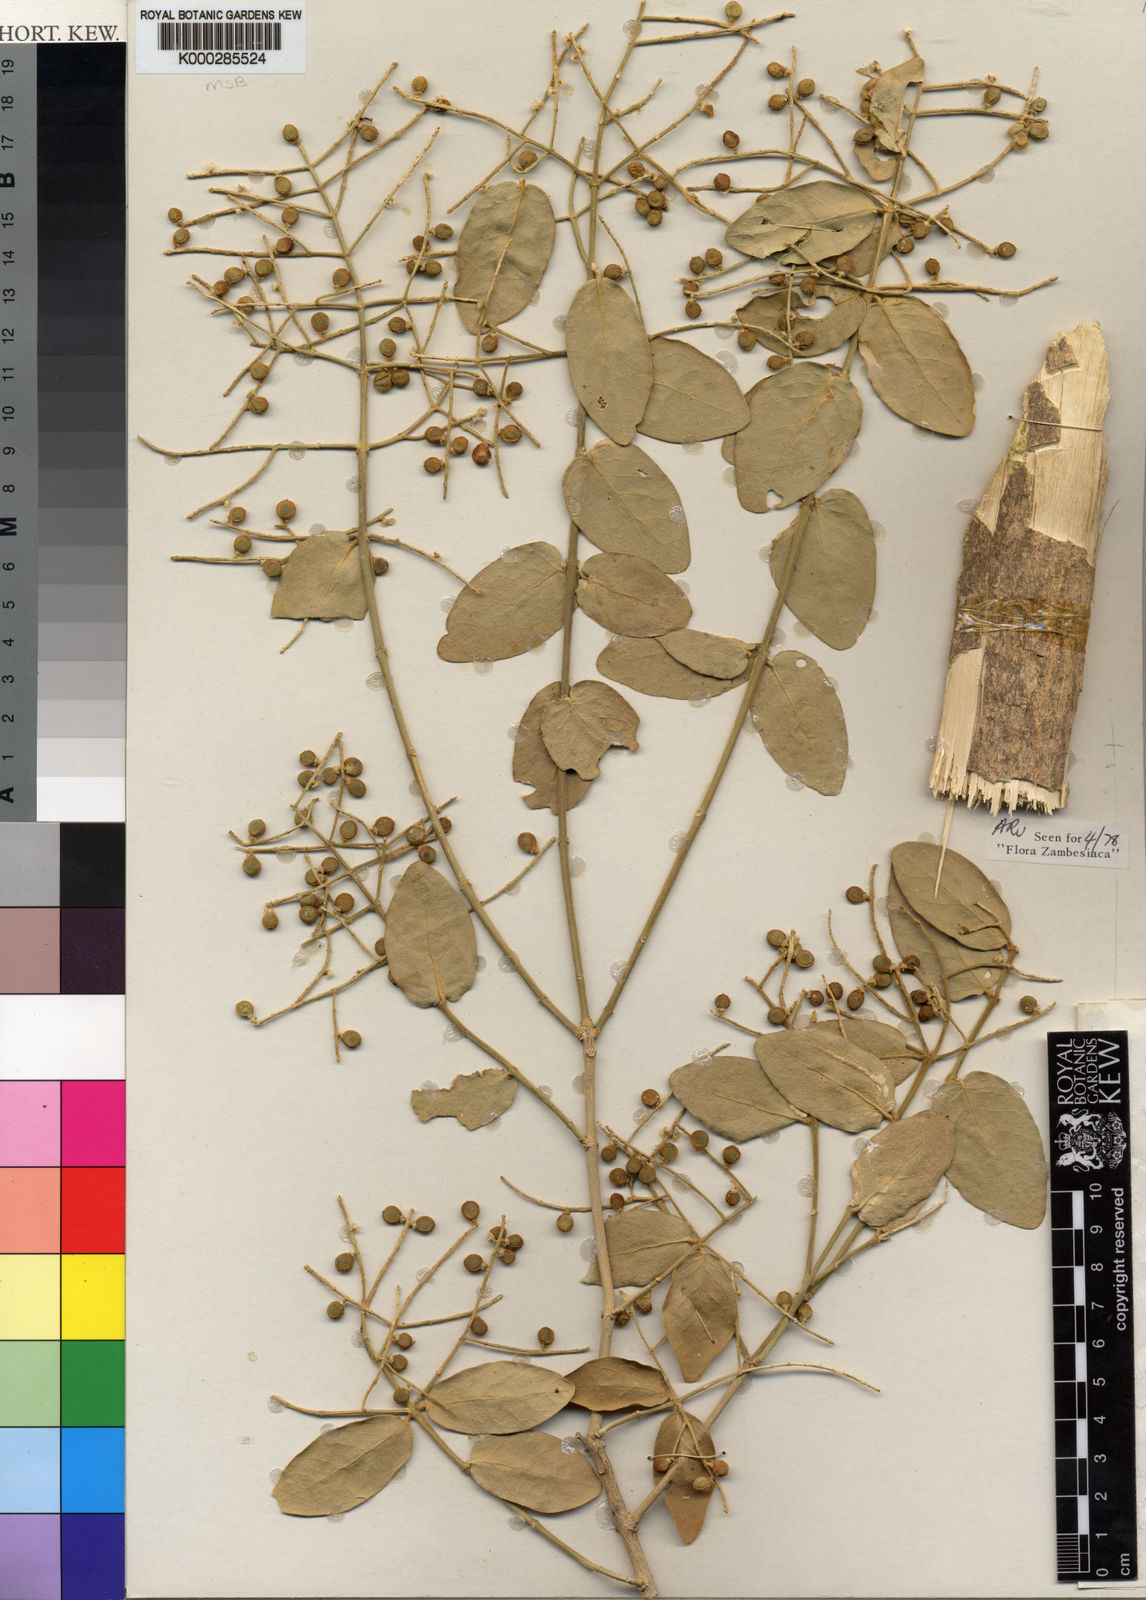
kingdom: Plantae
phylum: Tracheophyta
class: Magnoliopsida
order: Brassicales
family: Salvadoraceae
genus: Salvadora
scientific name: Salvadora persica
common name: Toothbrushtree
